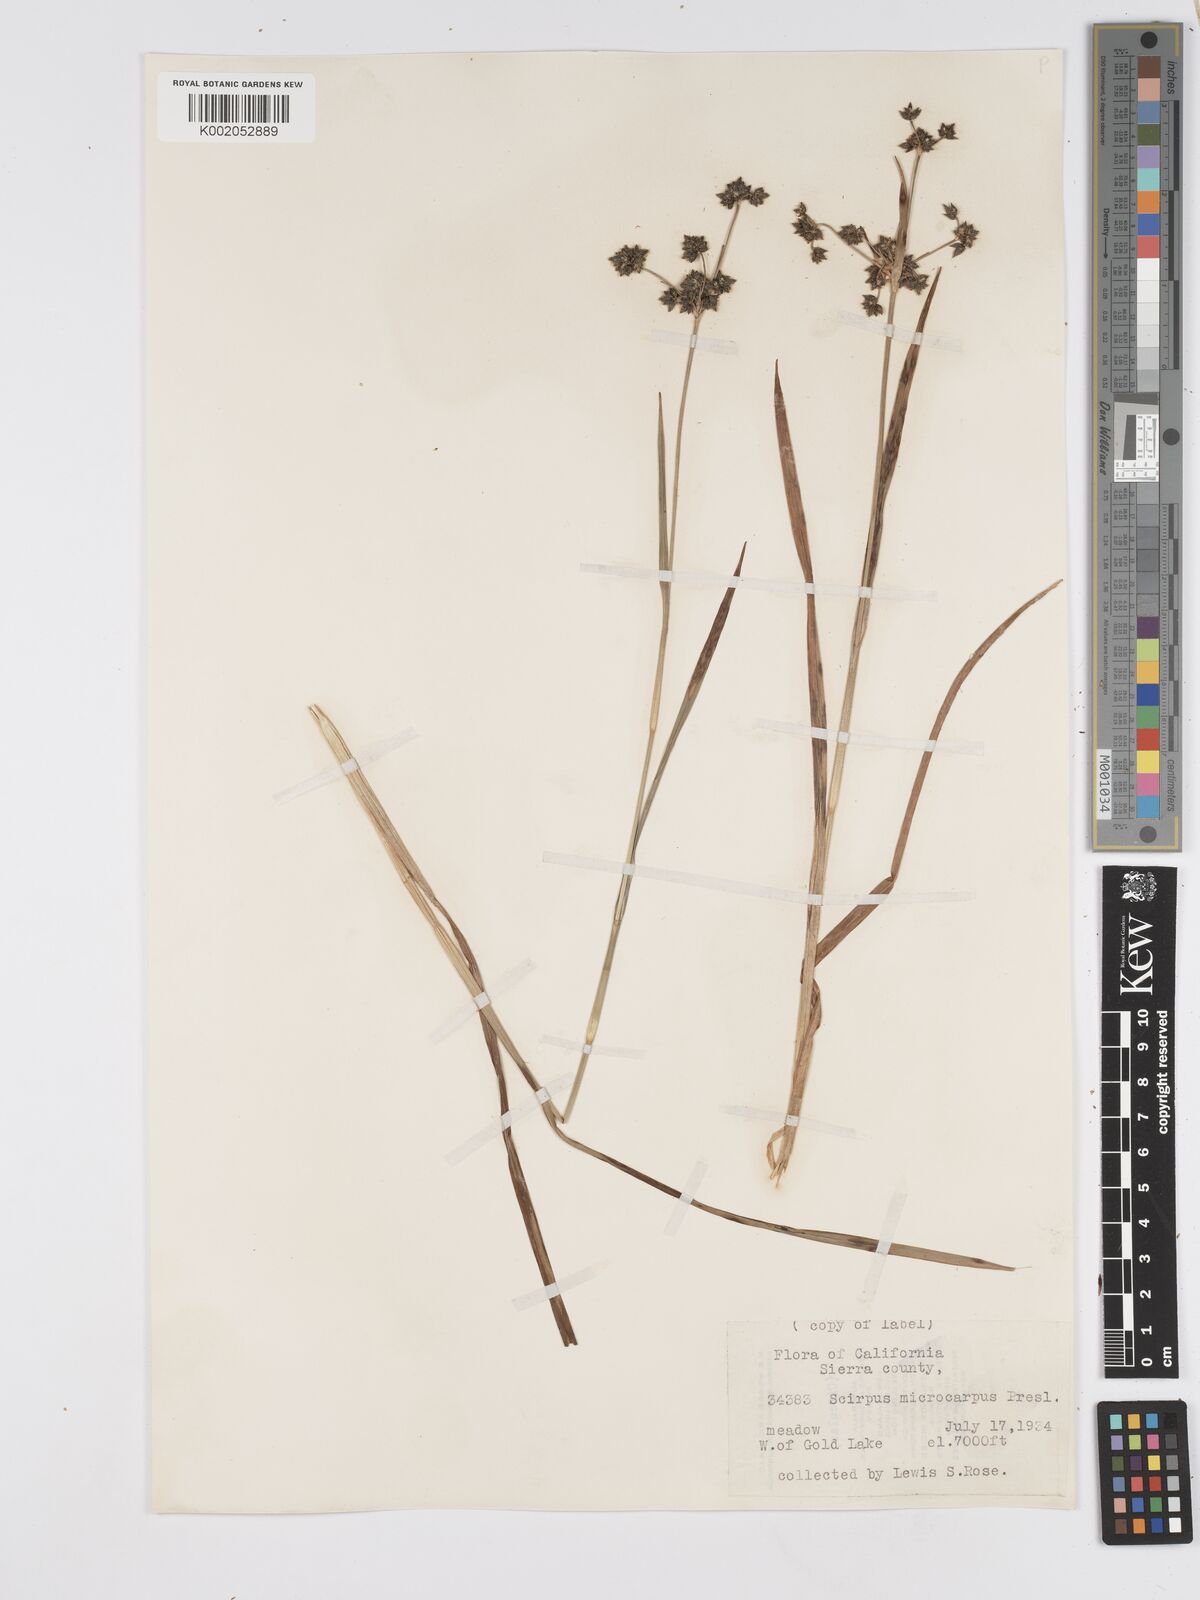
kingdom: Plantae
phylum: Tracheophyta
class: Liliopsida
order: Poales
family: Cyperaceae
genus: Scirpus
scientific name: Scirpus microcarpus
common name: Panicled bulrush
